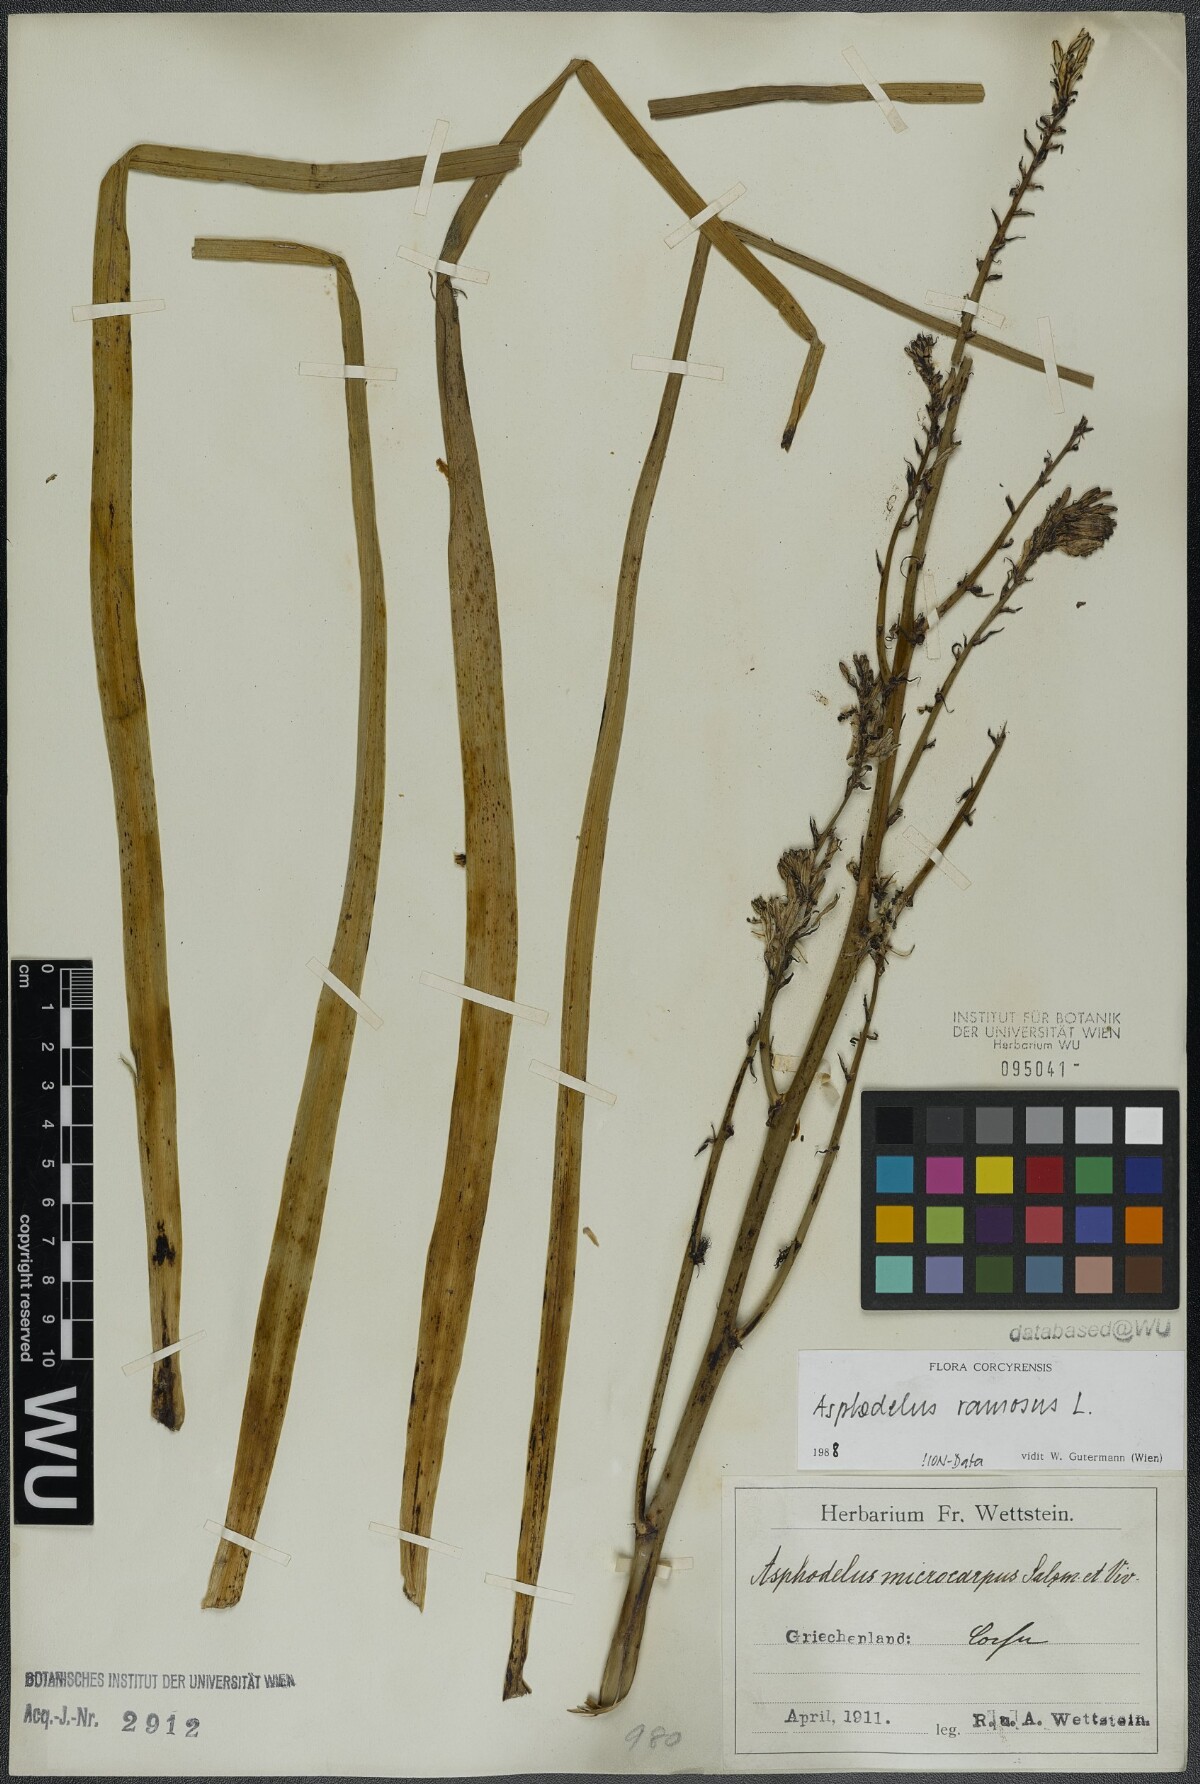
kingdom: Plantae
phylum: Tracheophyta
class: Liliopsida
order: Asparagales
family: Asphodelaceae
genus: Asphodelus
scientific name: Asphodelus ramosus
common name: Silverrod
